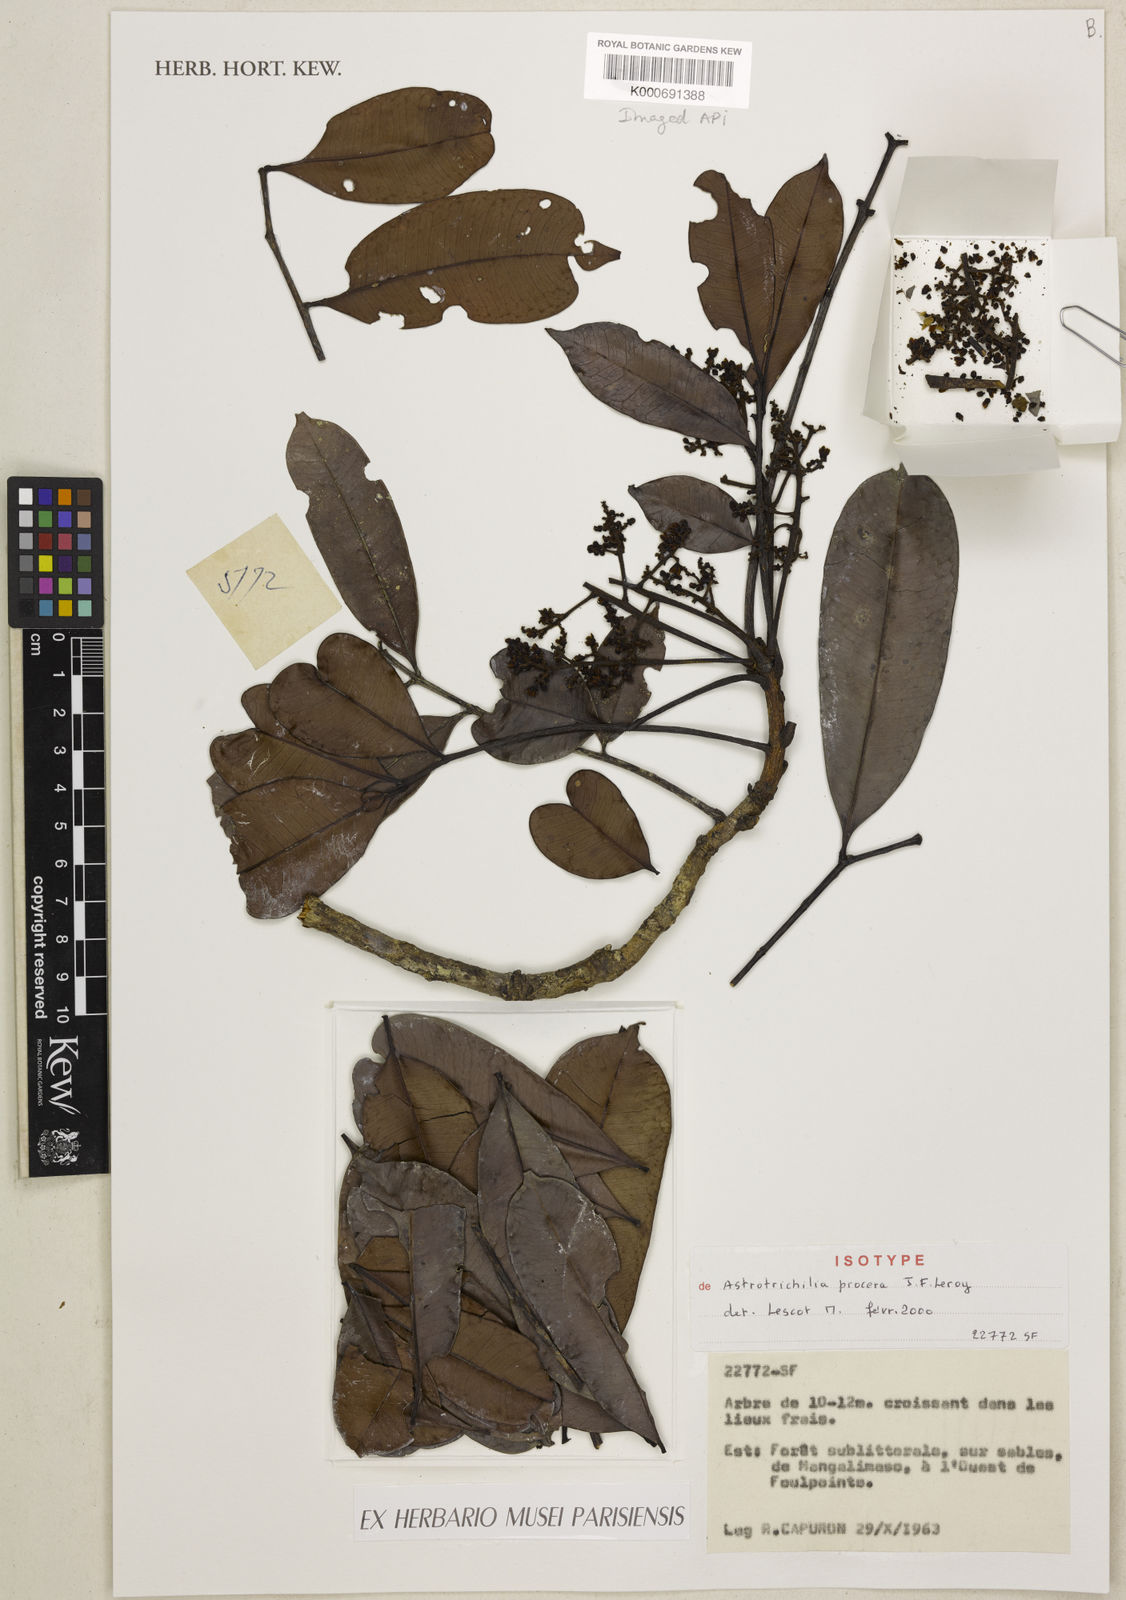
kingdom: Plantae
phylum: Tracheophyta
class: Magnoliopsida
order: Sapindales
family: Meliaceae
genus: Astrotrichilia
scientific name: Astrotrichilia procera
